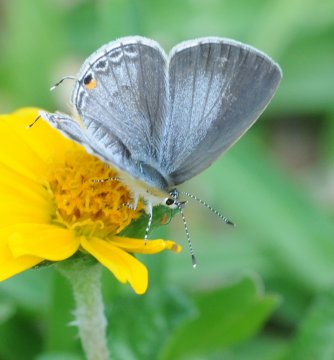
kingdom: Animalia
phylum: Arthropoda
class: Insecta
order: Lepidoptera
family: Lycaenidae
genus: Eicochrysops
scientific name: Eicochrysops hippocrates
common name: White-tipped Blue
